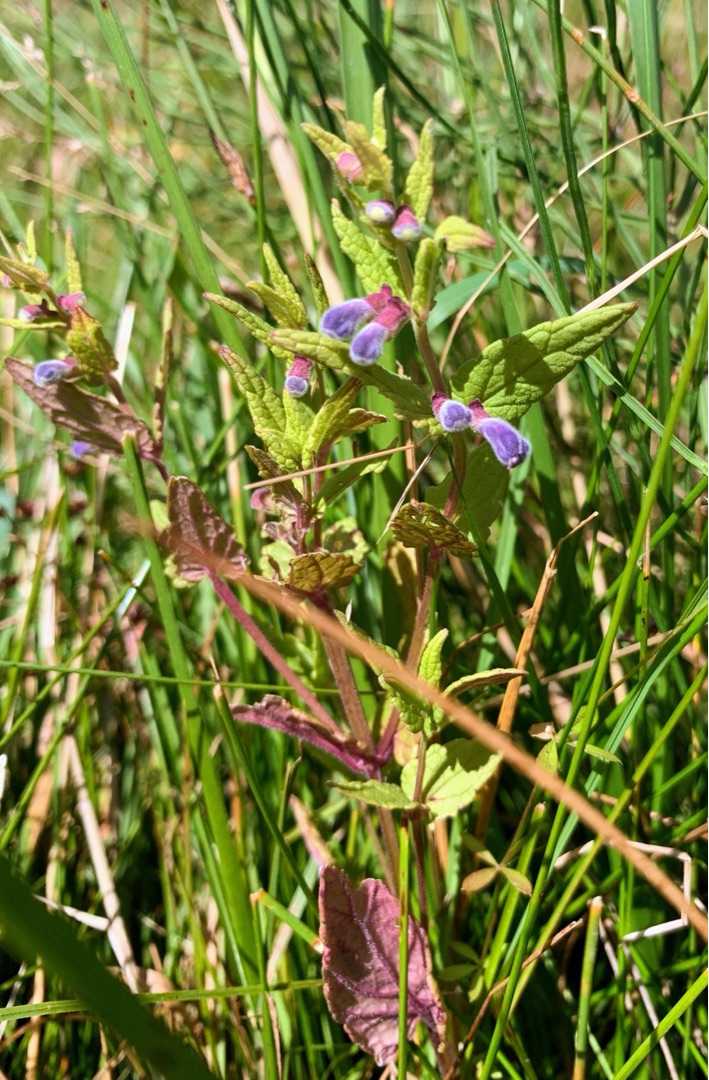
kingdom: Plantae
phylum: Tracheophyta
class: Magnoliopsida
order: Lamiales
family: Lamiaceae
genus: Scutellaria
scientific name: Scutellaria galericulata
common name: Almindelig skjolddrager
